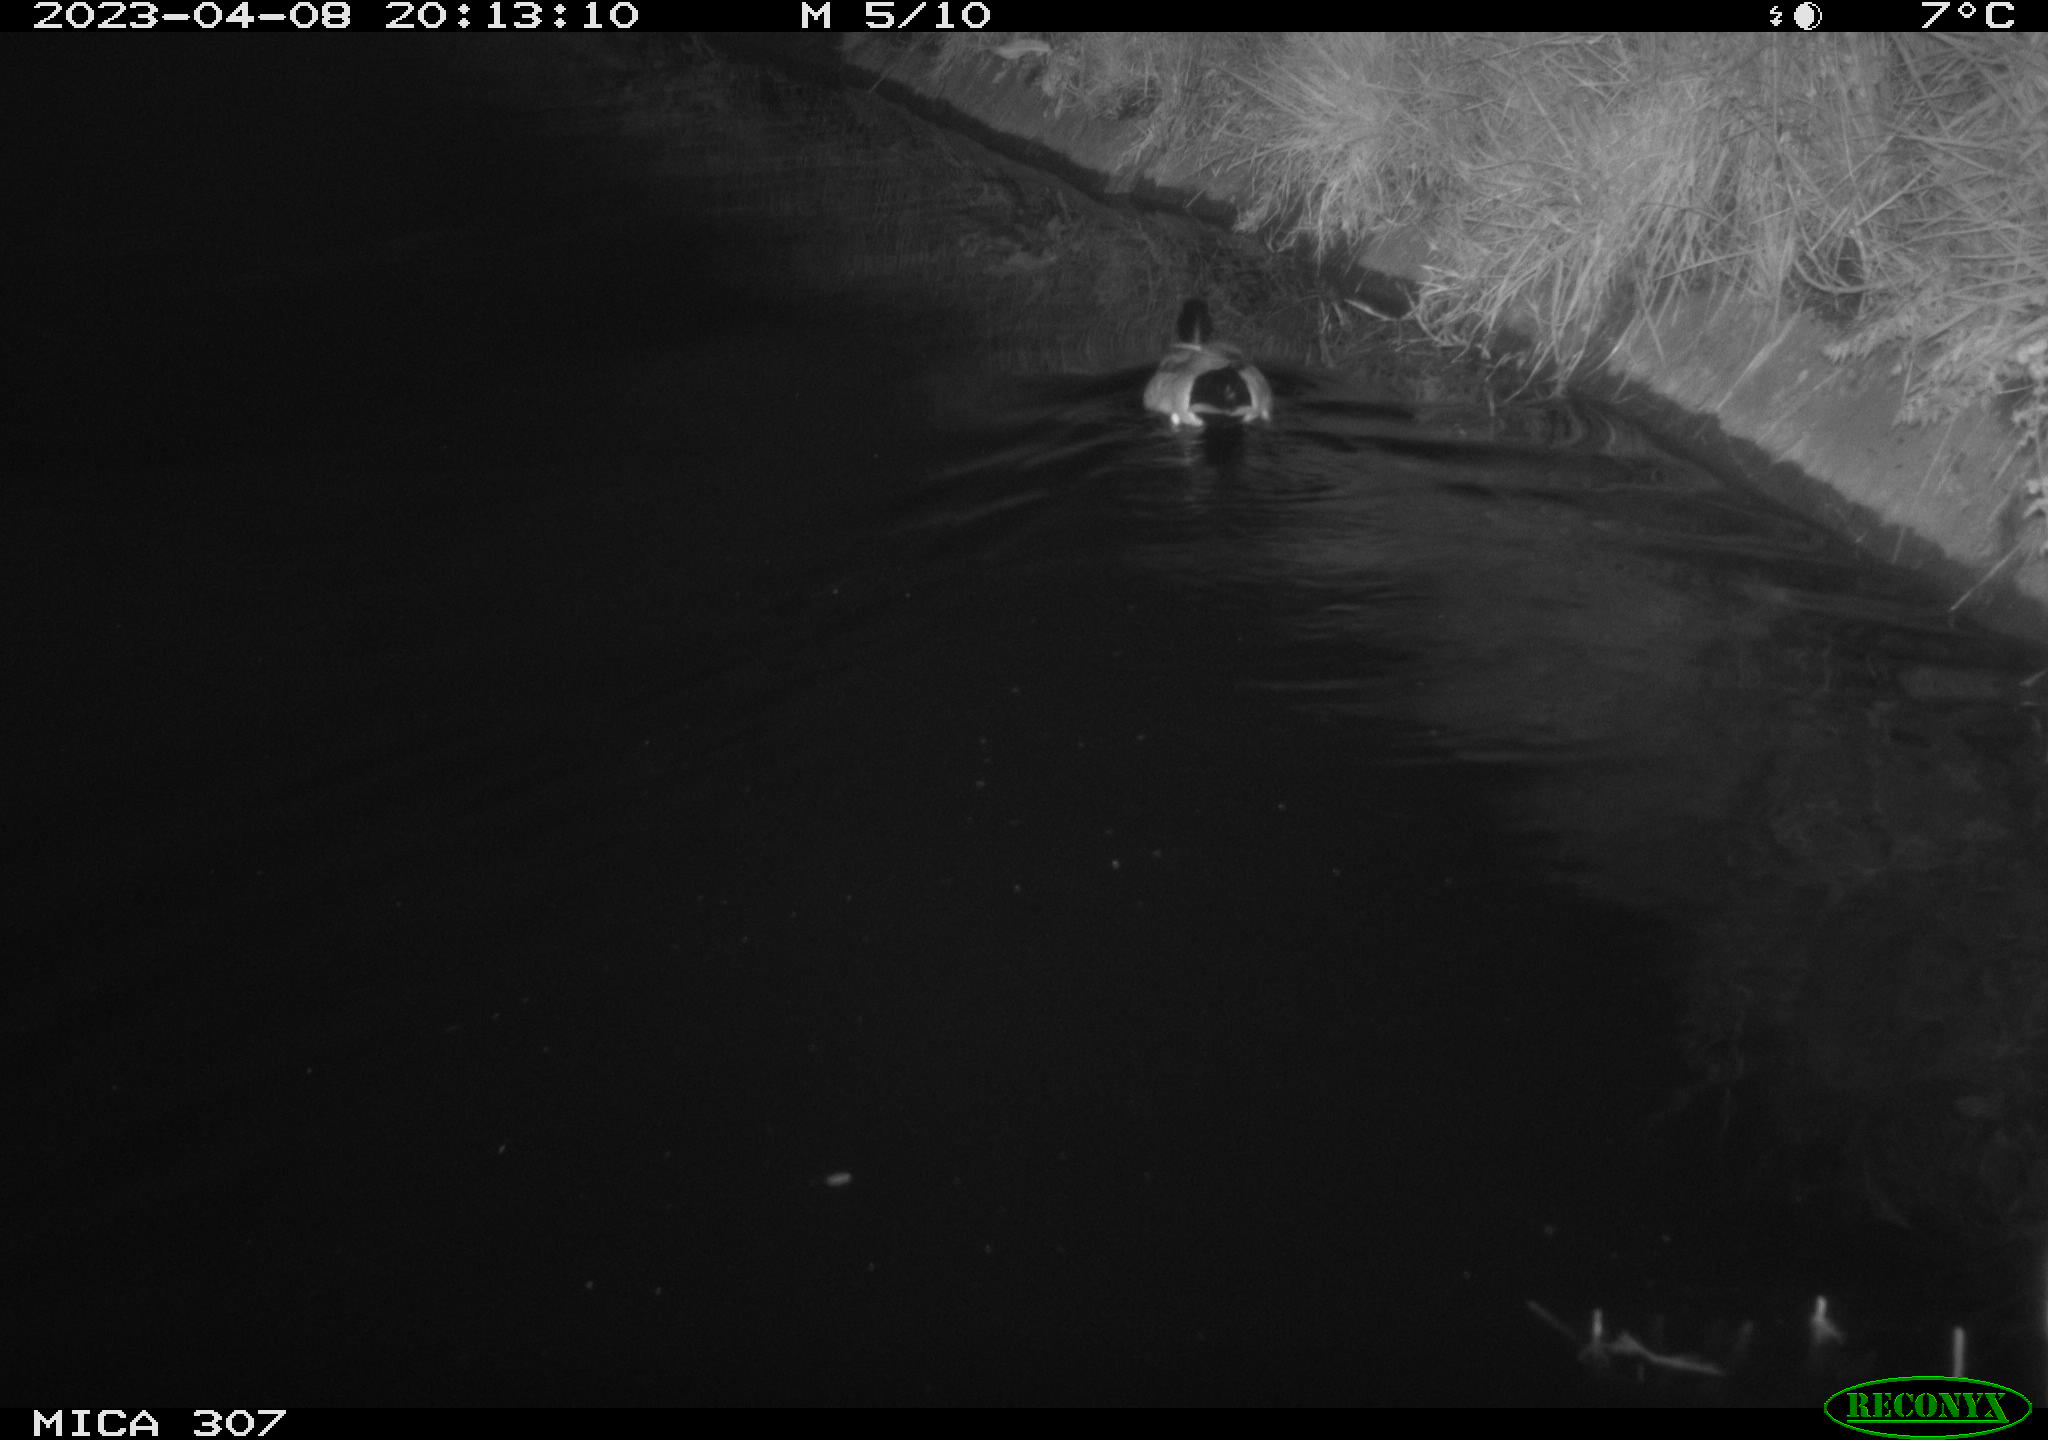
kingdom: Animalia
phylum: Chordata
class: Aves
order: Anseriformes
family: Anatidae
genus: Anas
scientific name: Anas
